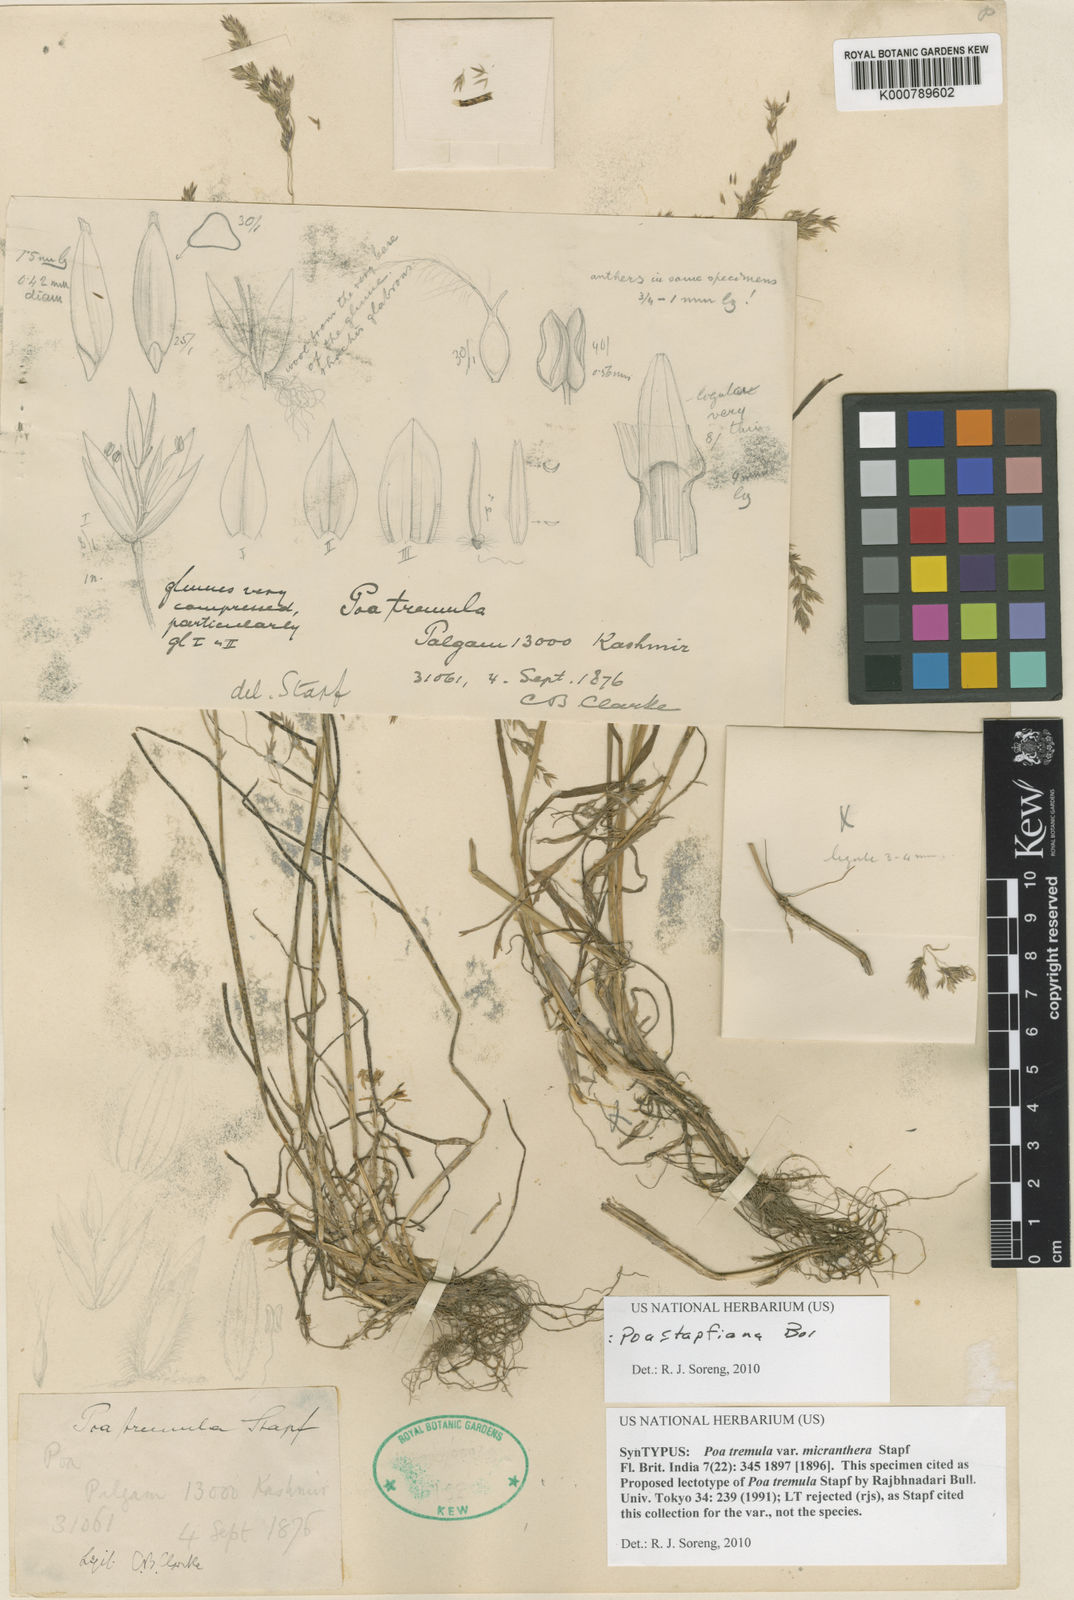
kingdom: Plantae
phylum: Tracheophyta
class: Liliopsida
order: Poales
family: Poaceae
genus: Poa
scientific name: Poa stapfiana
